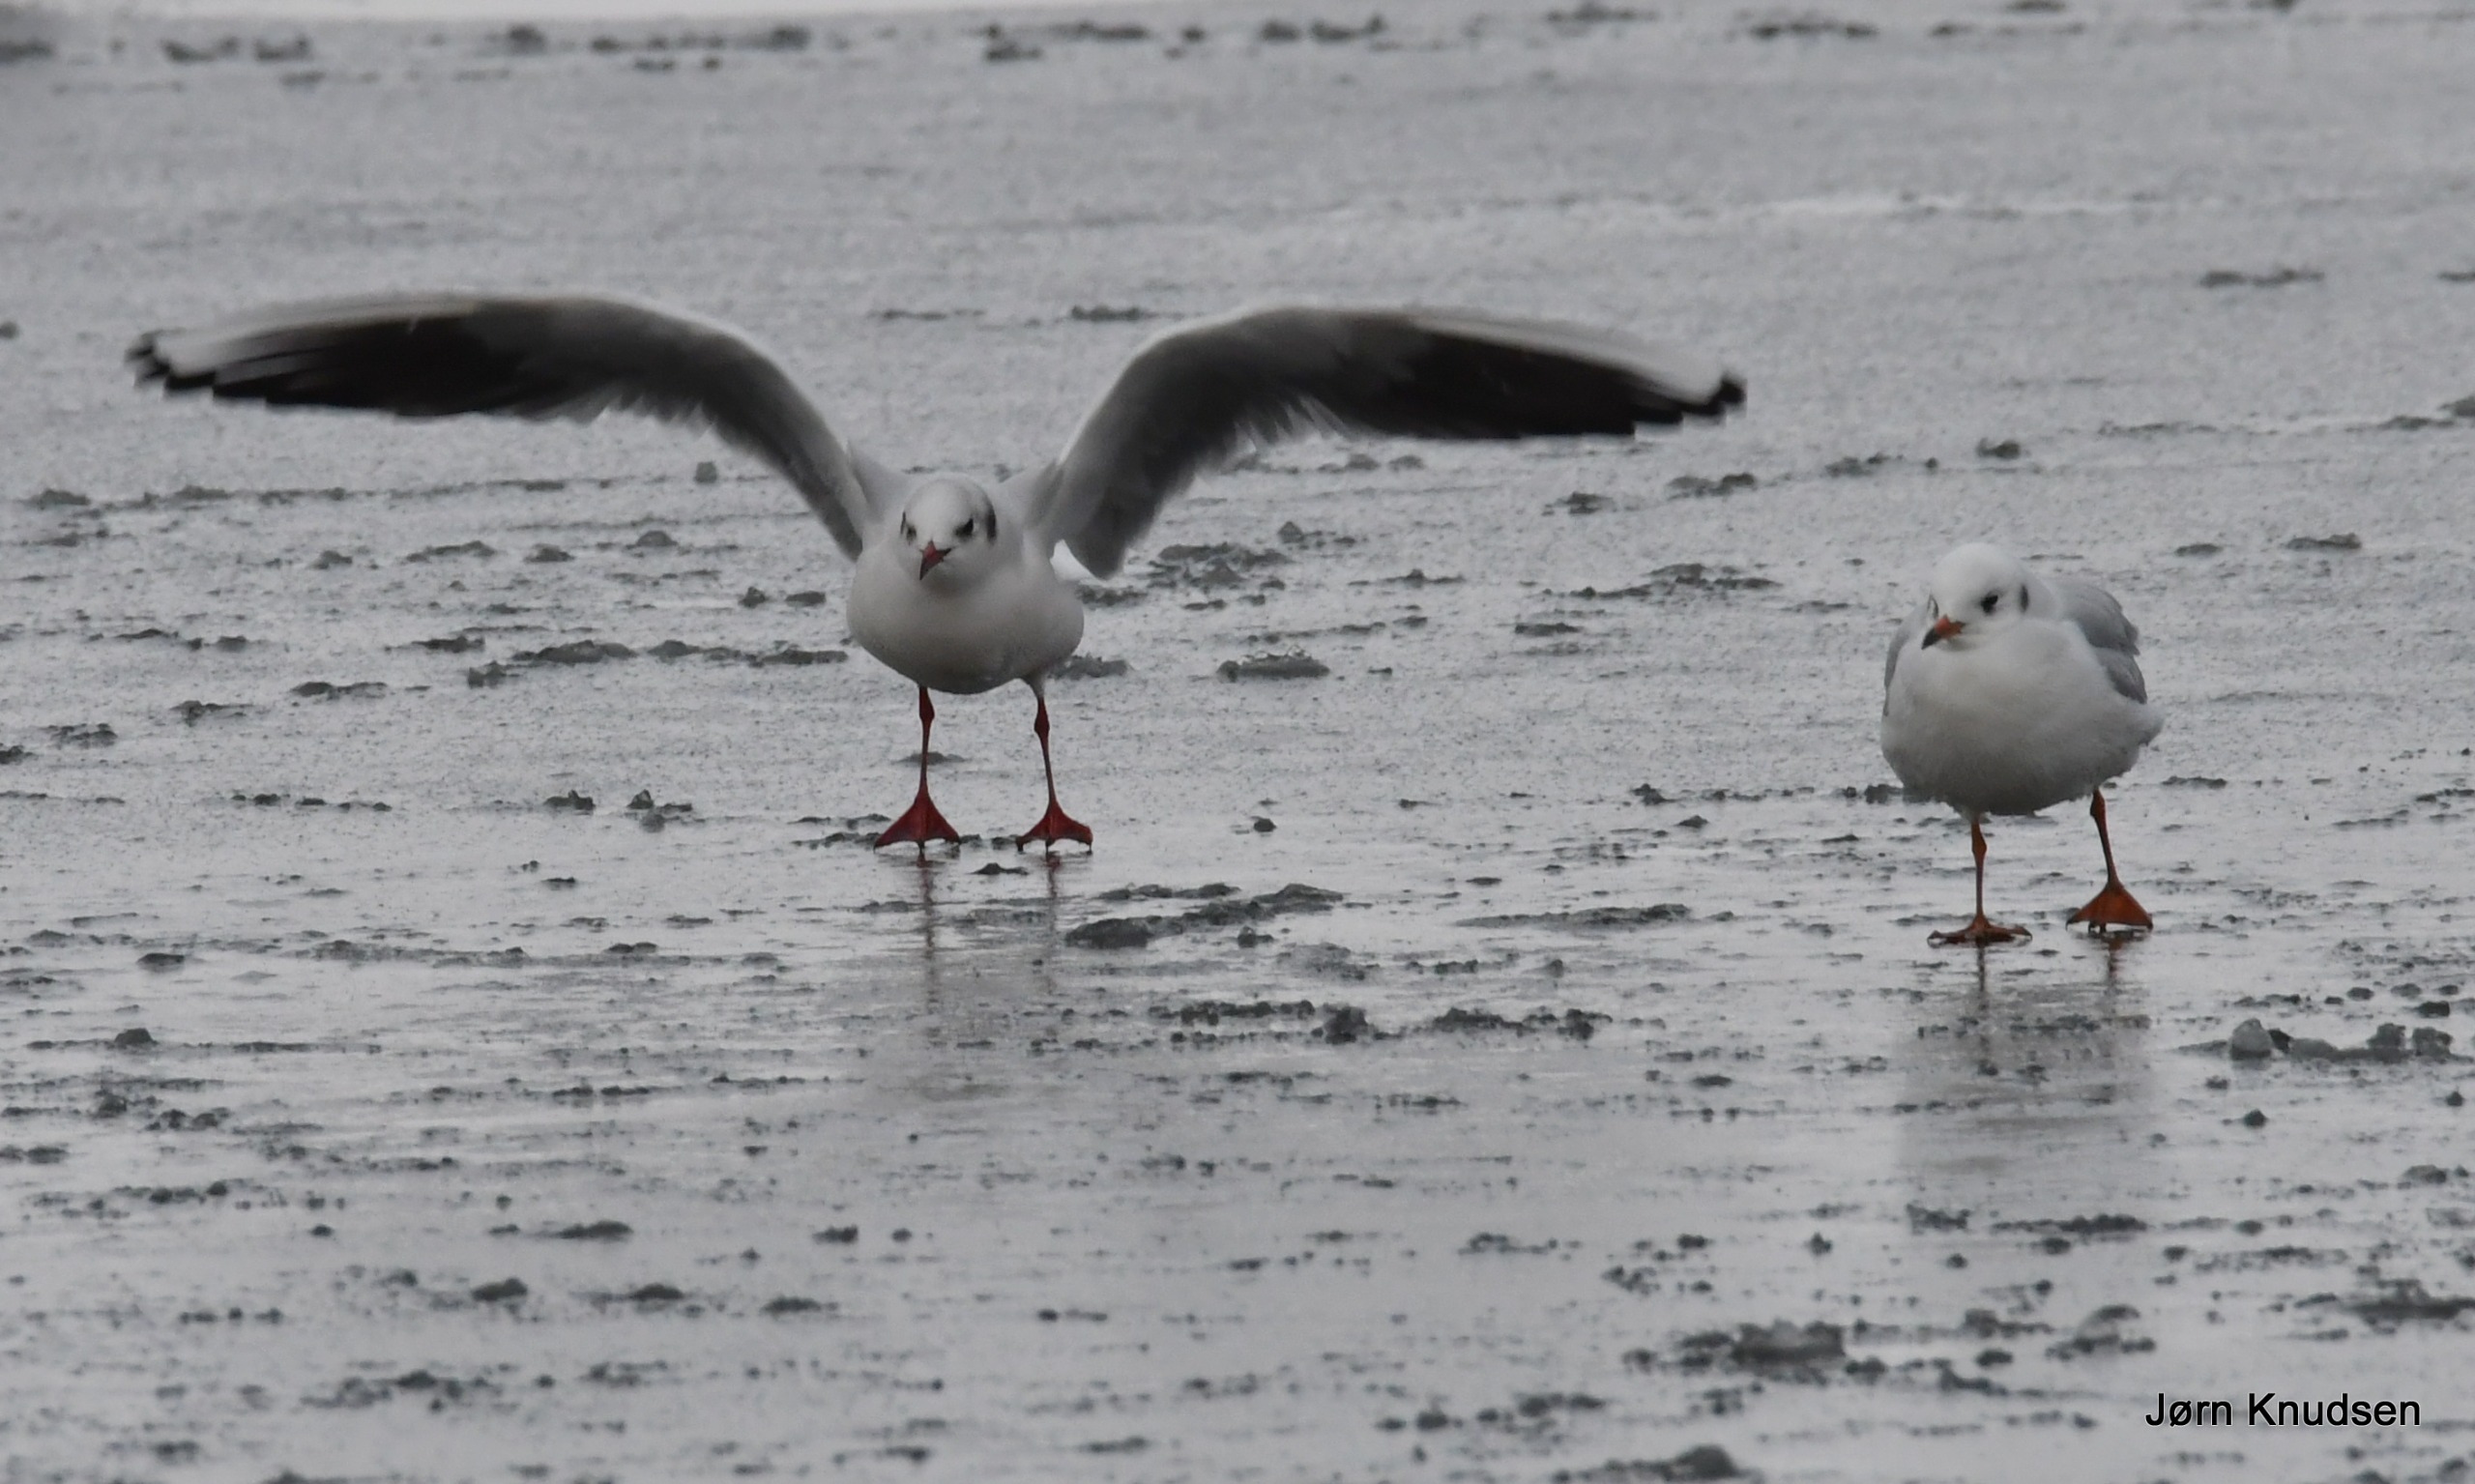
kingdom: Animalia
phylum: Chordata
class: Aves
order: Charadriiformes
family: Laridae
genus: Chroicocephalus
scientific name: Chroicocephalus ridibundus
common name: Hættemåge
